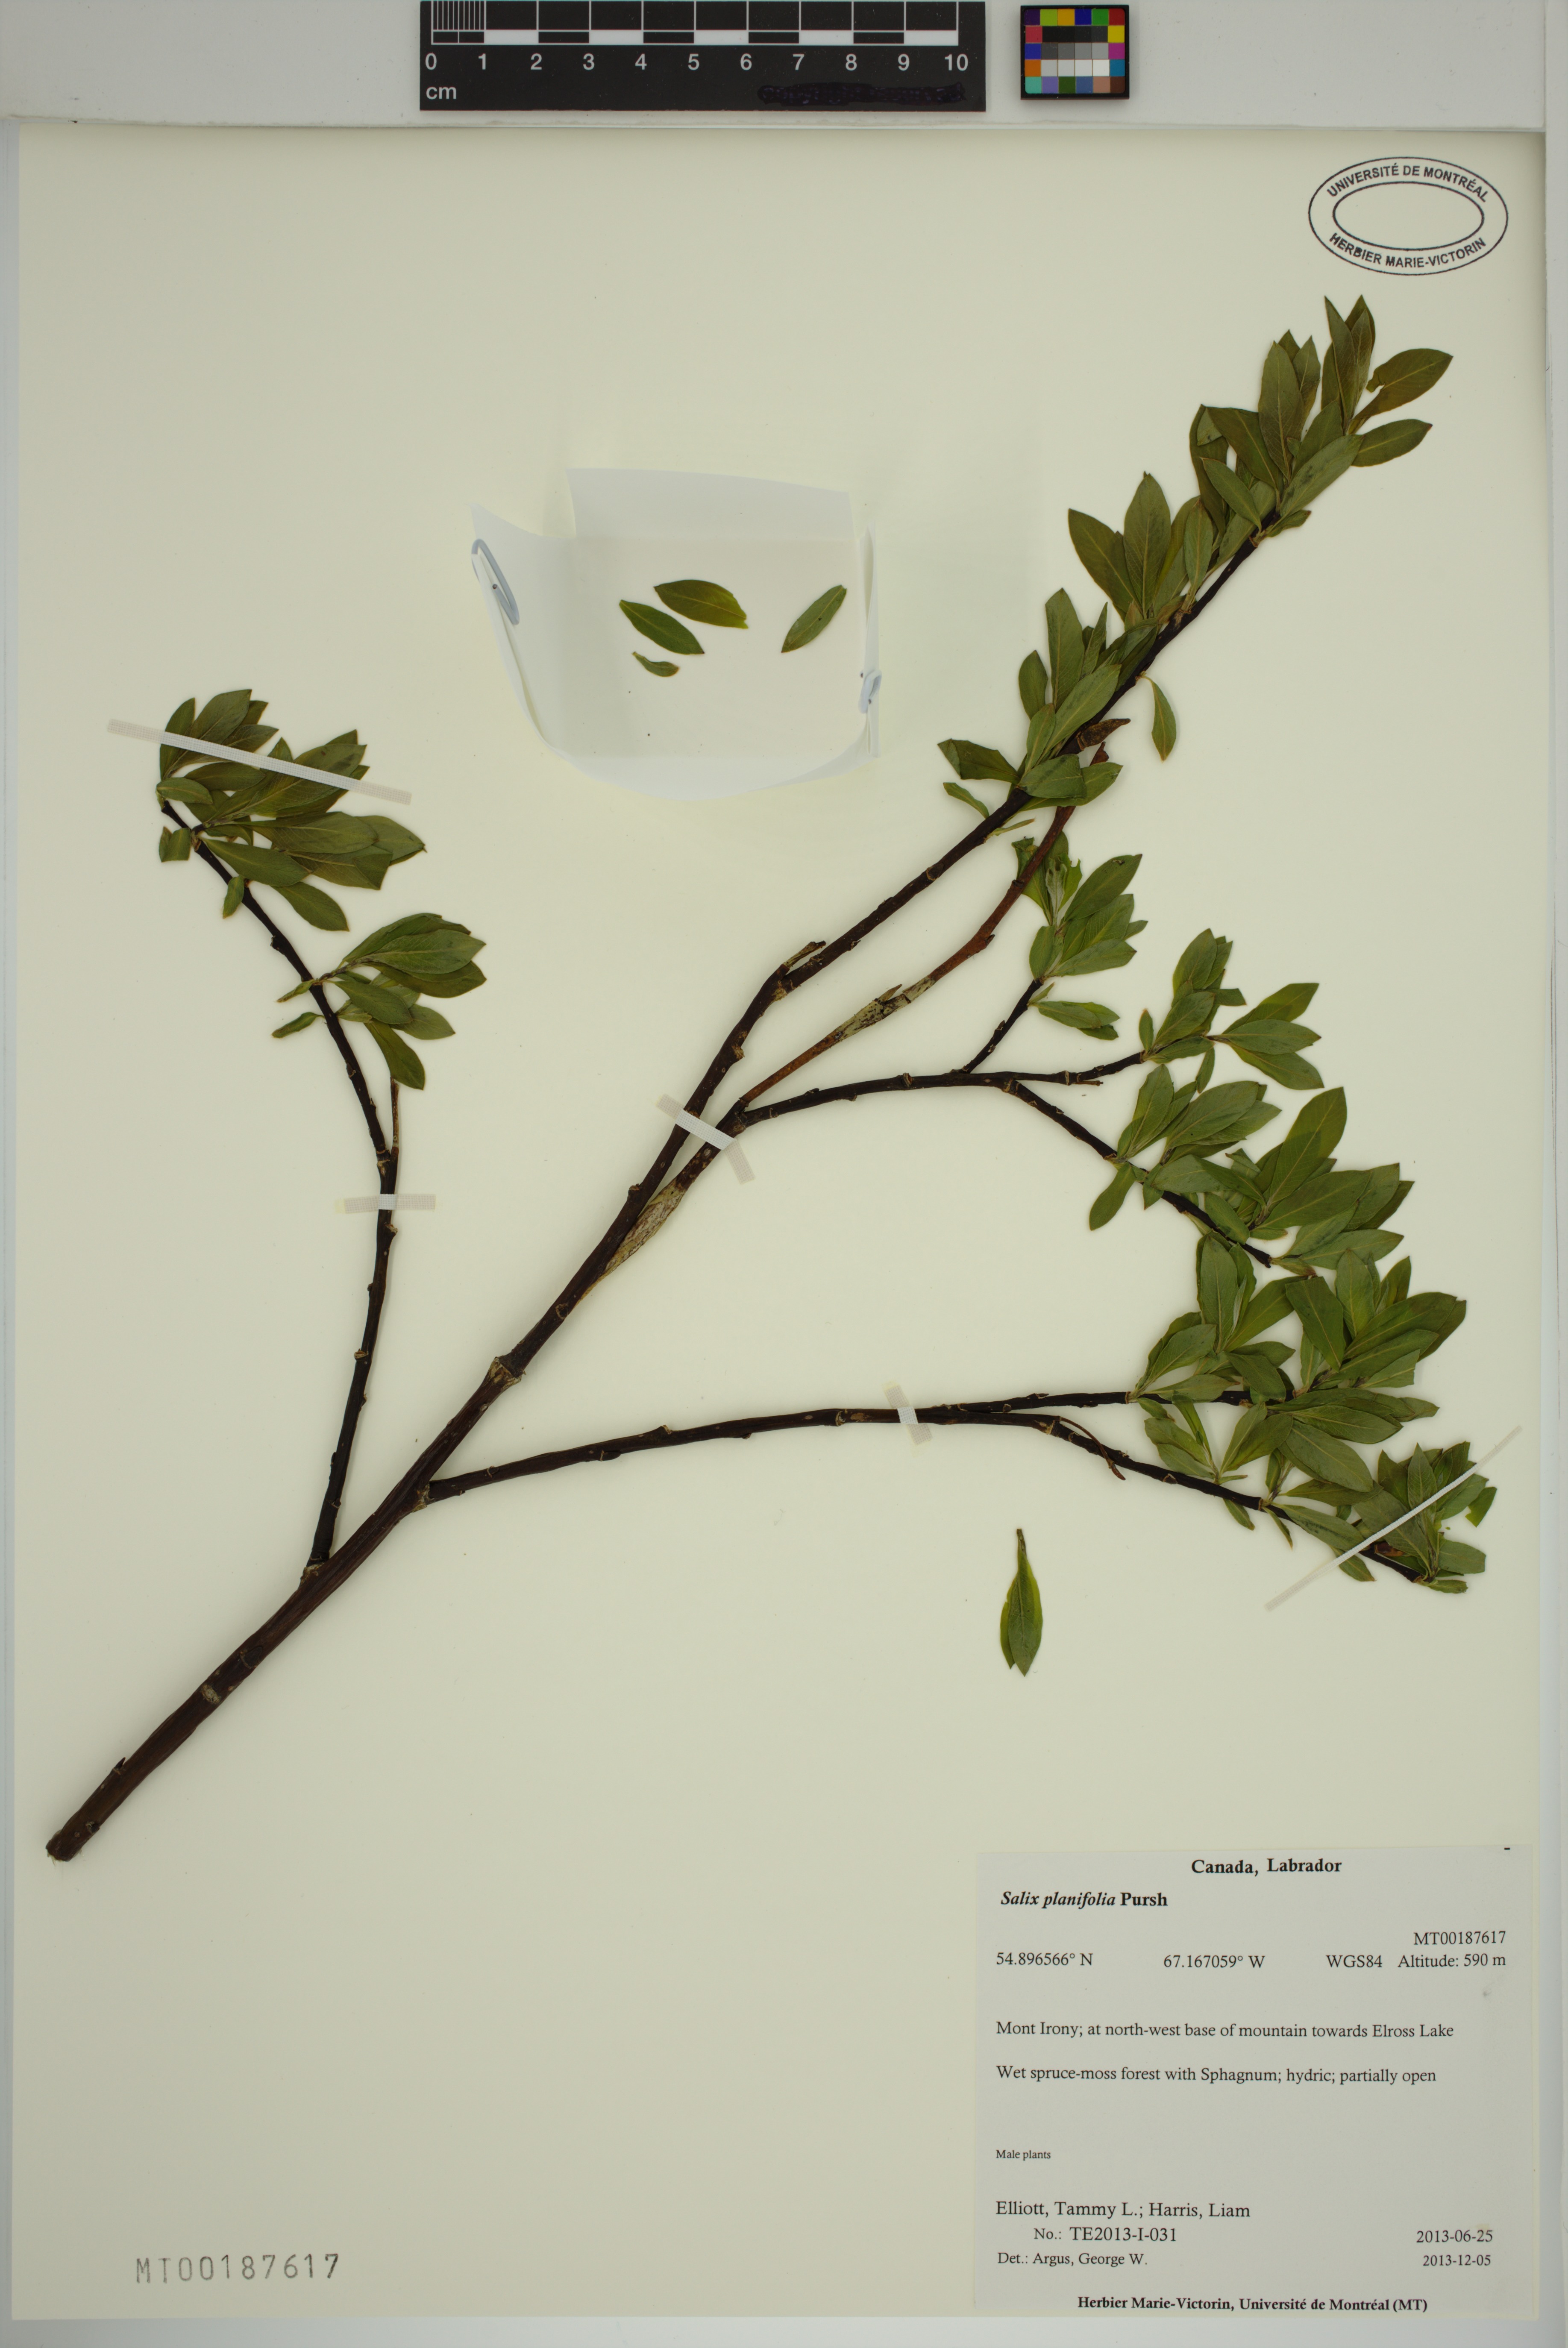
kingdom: Plantae
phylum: Tracheophyta
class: Magnoliopsida
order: Malpighiales
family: Salicaceae
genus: Salix
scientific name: Salix planifolia
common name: Mountain willow
